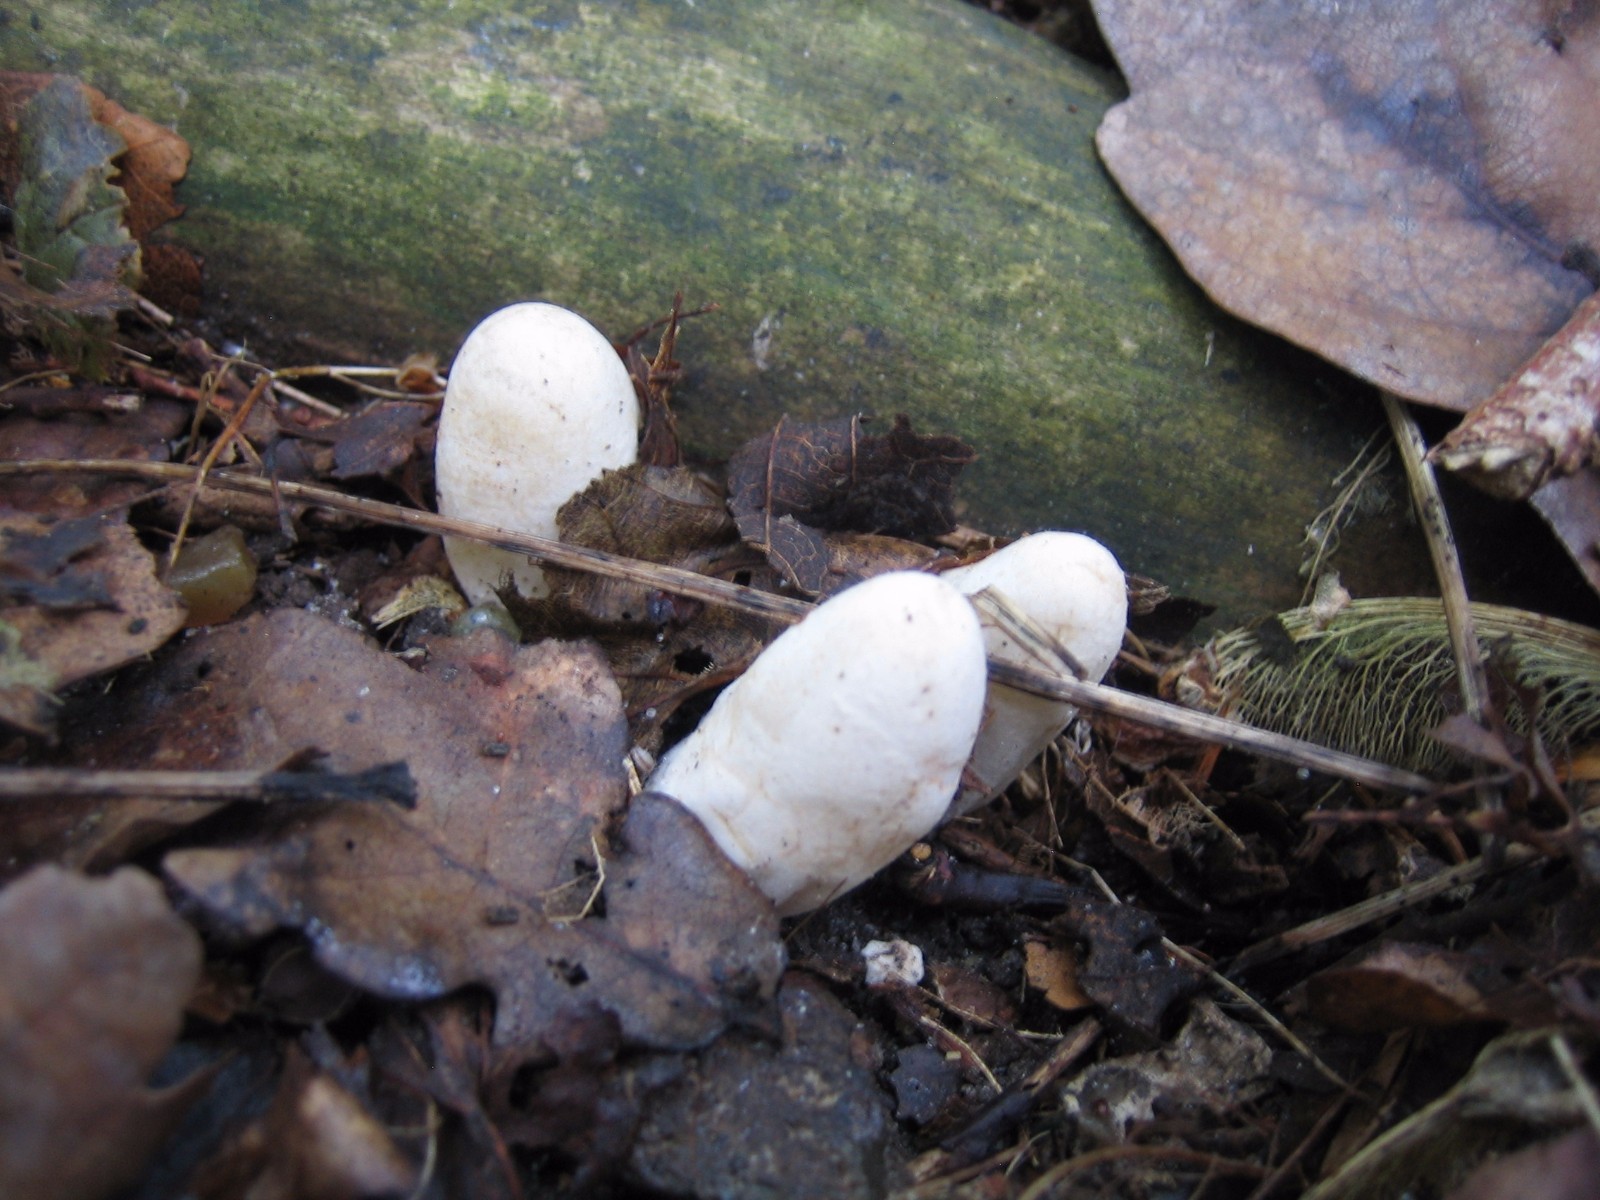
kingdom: Fungi
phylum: Basidiomycota
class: Agaricomycetes
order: Phallales
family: Phallaceae
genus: Mutinus
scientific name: Mutinus caninus
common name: hunde-stinksvamp
